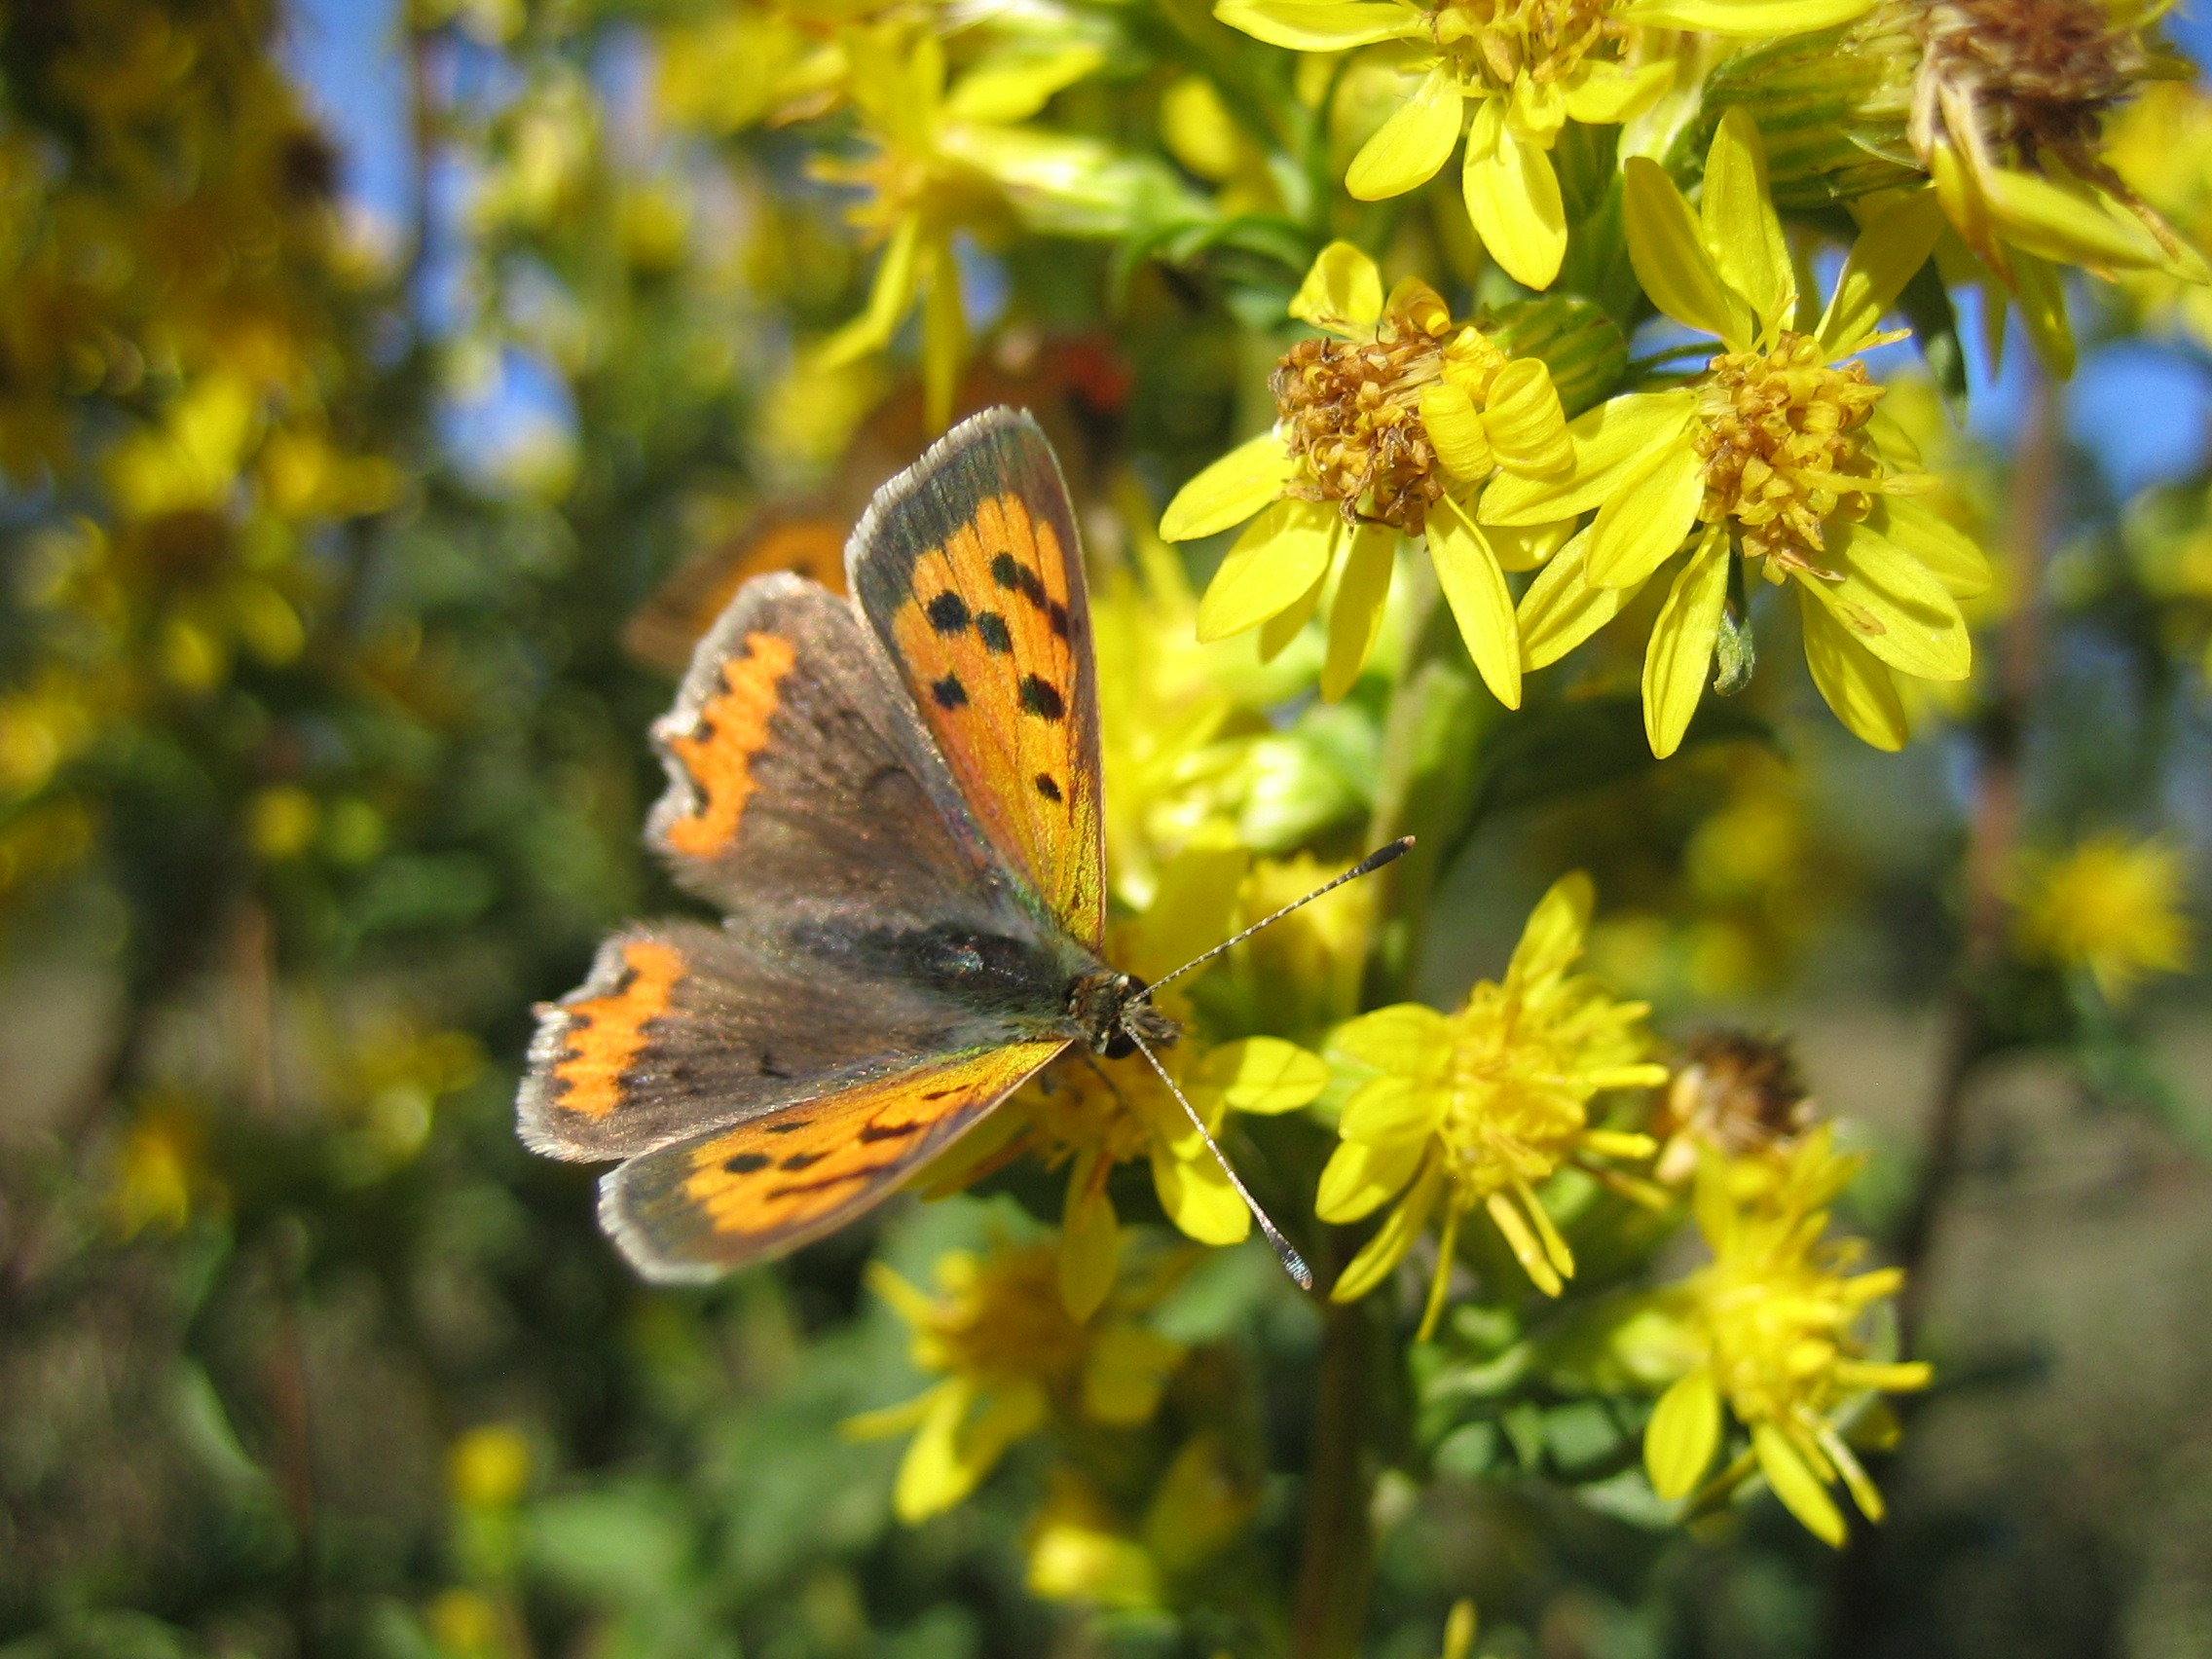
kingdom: Animalia
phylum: Arthropoda
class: Insecta
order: Lepidoptera
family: Lycaenidae
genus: Lycaena
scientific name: Lycaena phlaeas
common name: Lille ildfugl
